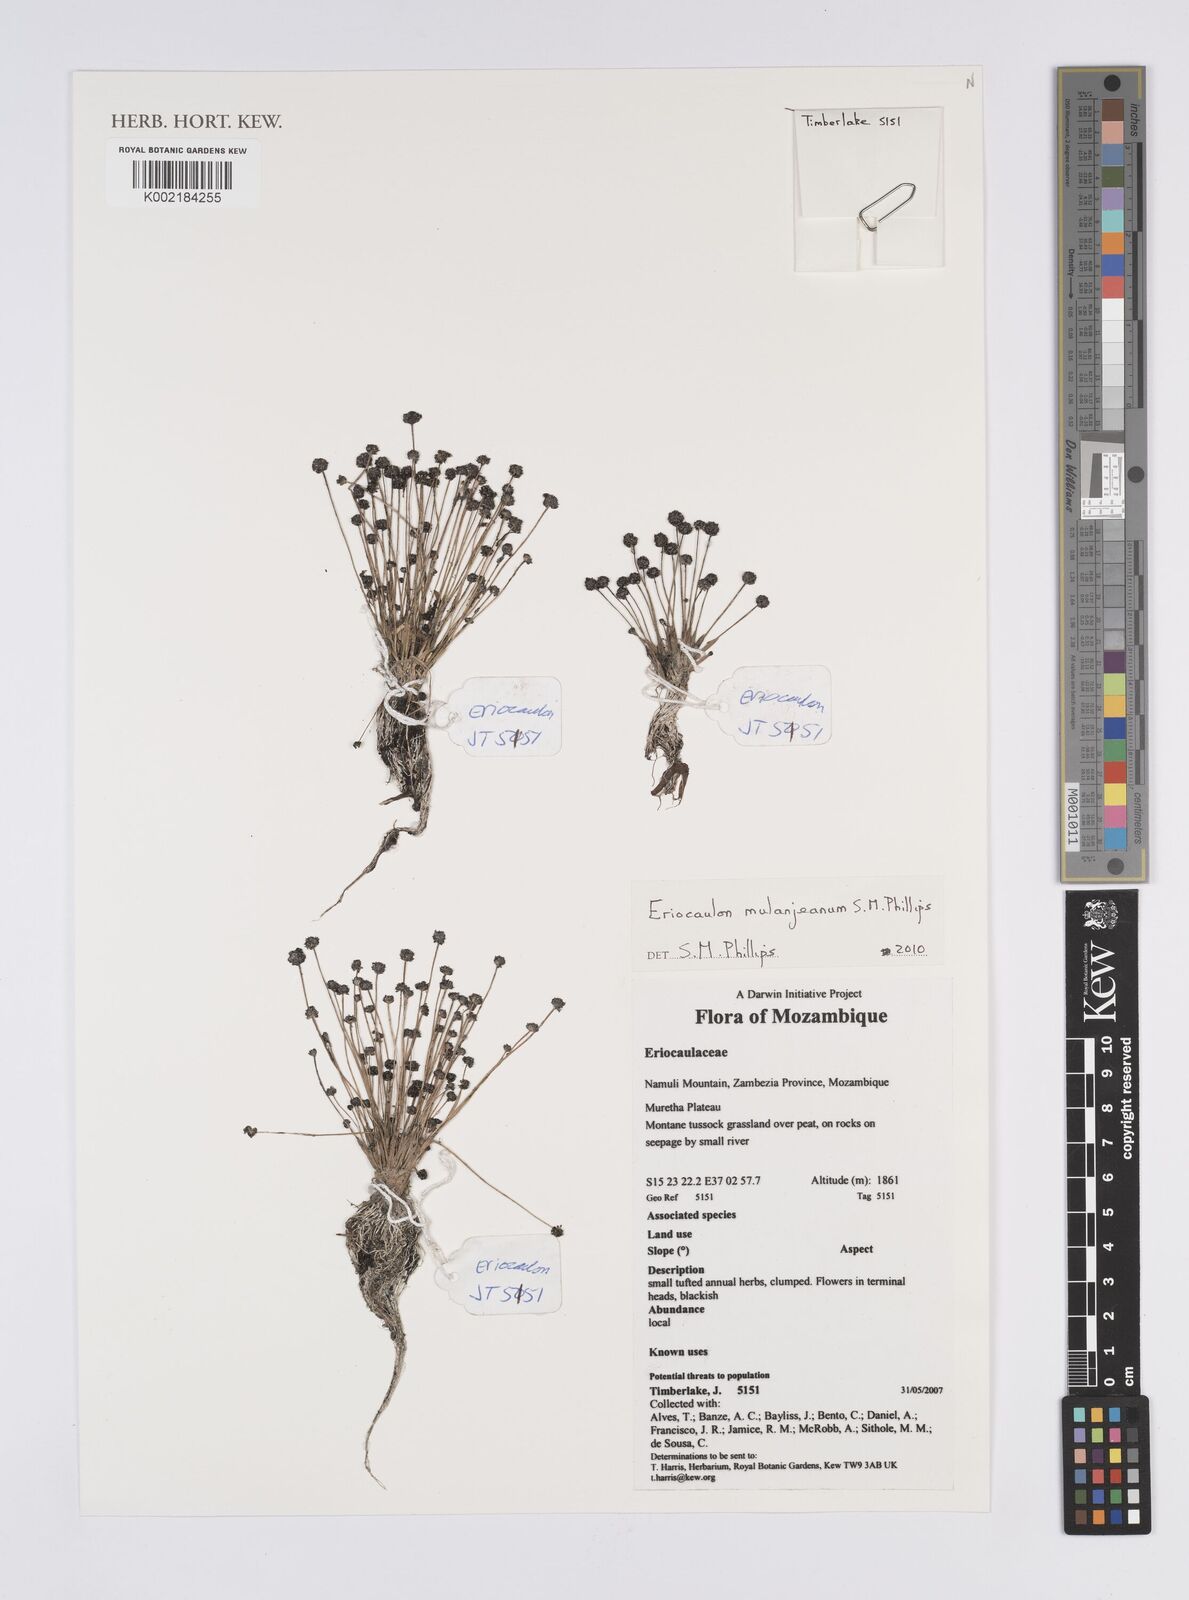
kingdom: Plantae
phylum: Tracheophyta
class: Liliopsida
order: Poales
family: Eriocaulaceae
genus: Eriocaulon
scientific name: Eriocaulon mulanjeanum
